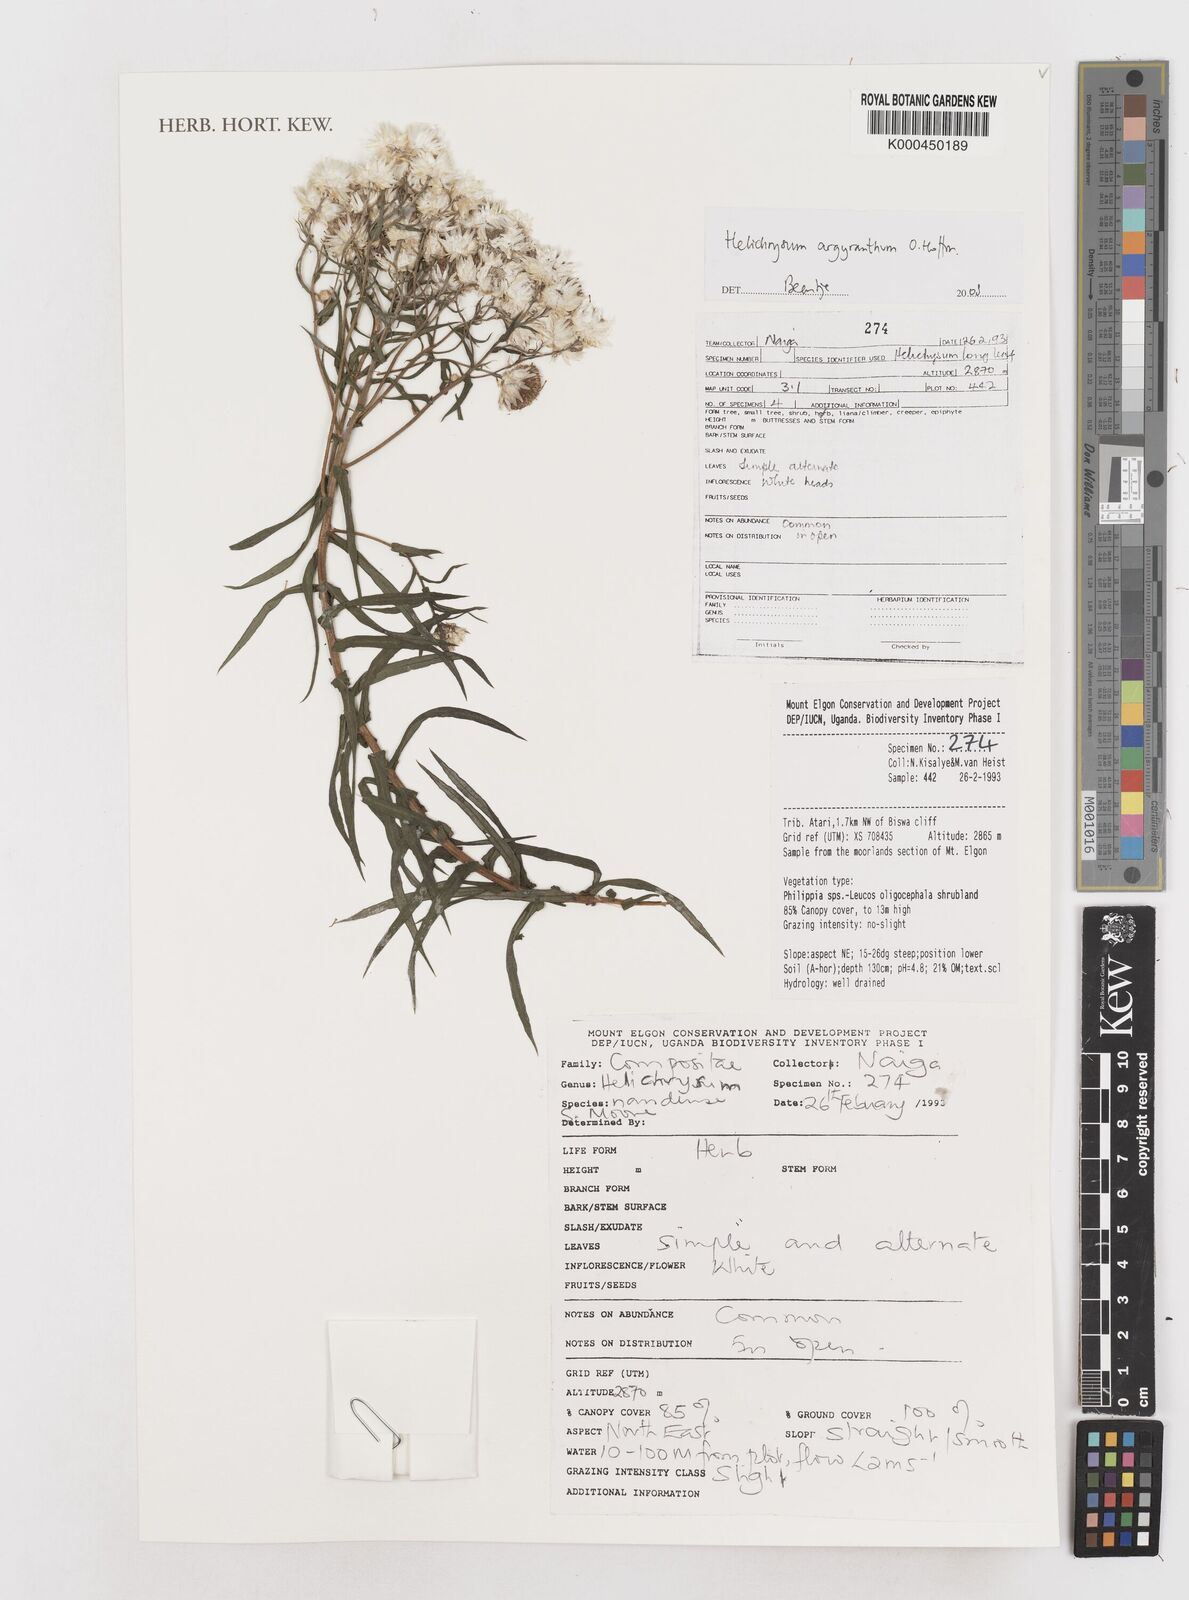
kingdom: Plantae
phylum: Tracheophyta
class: Magnoliopsida
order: Asterales
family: Asteraceae
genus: Helichrysum
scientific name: Helichrysum argyranthum
